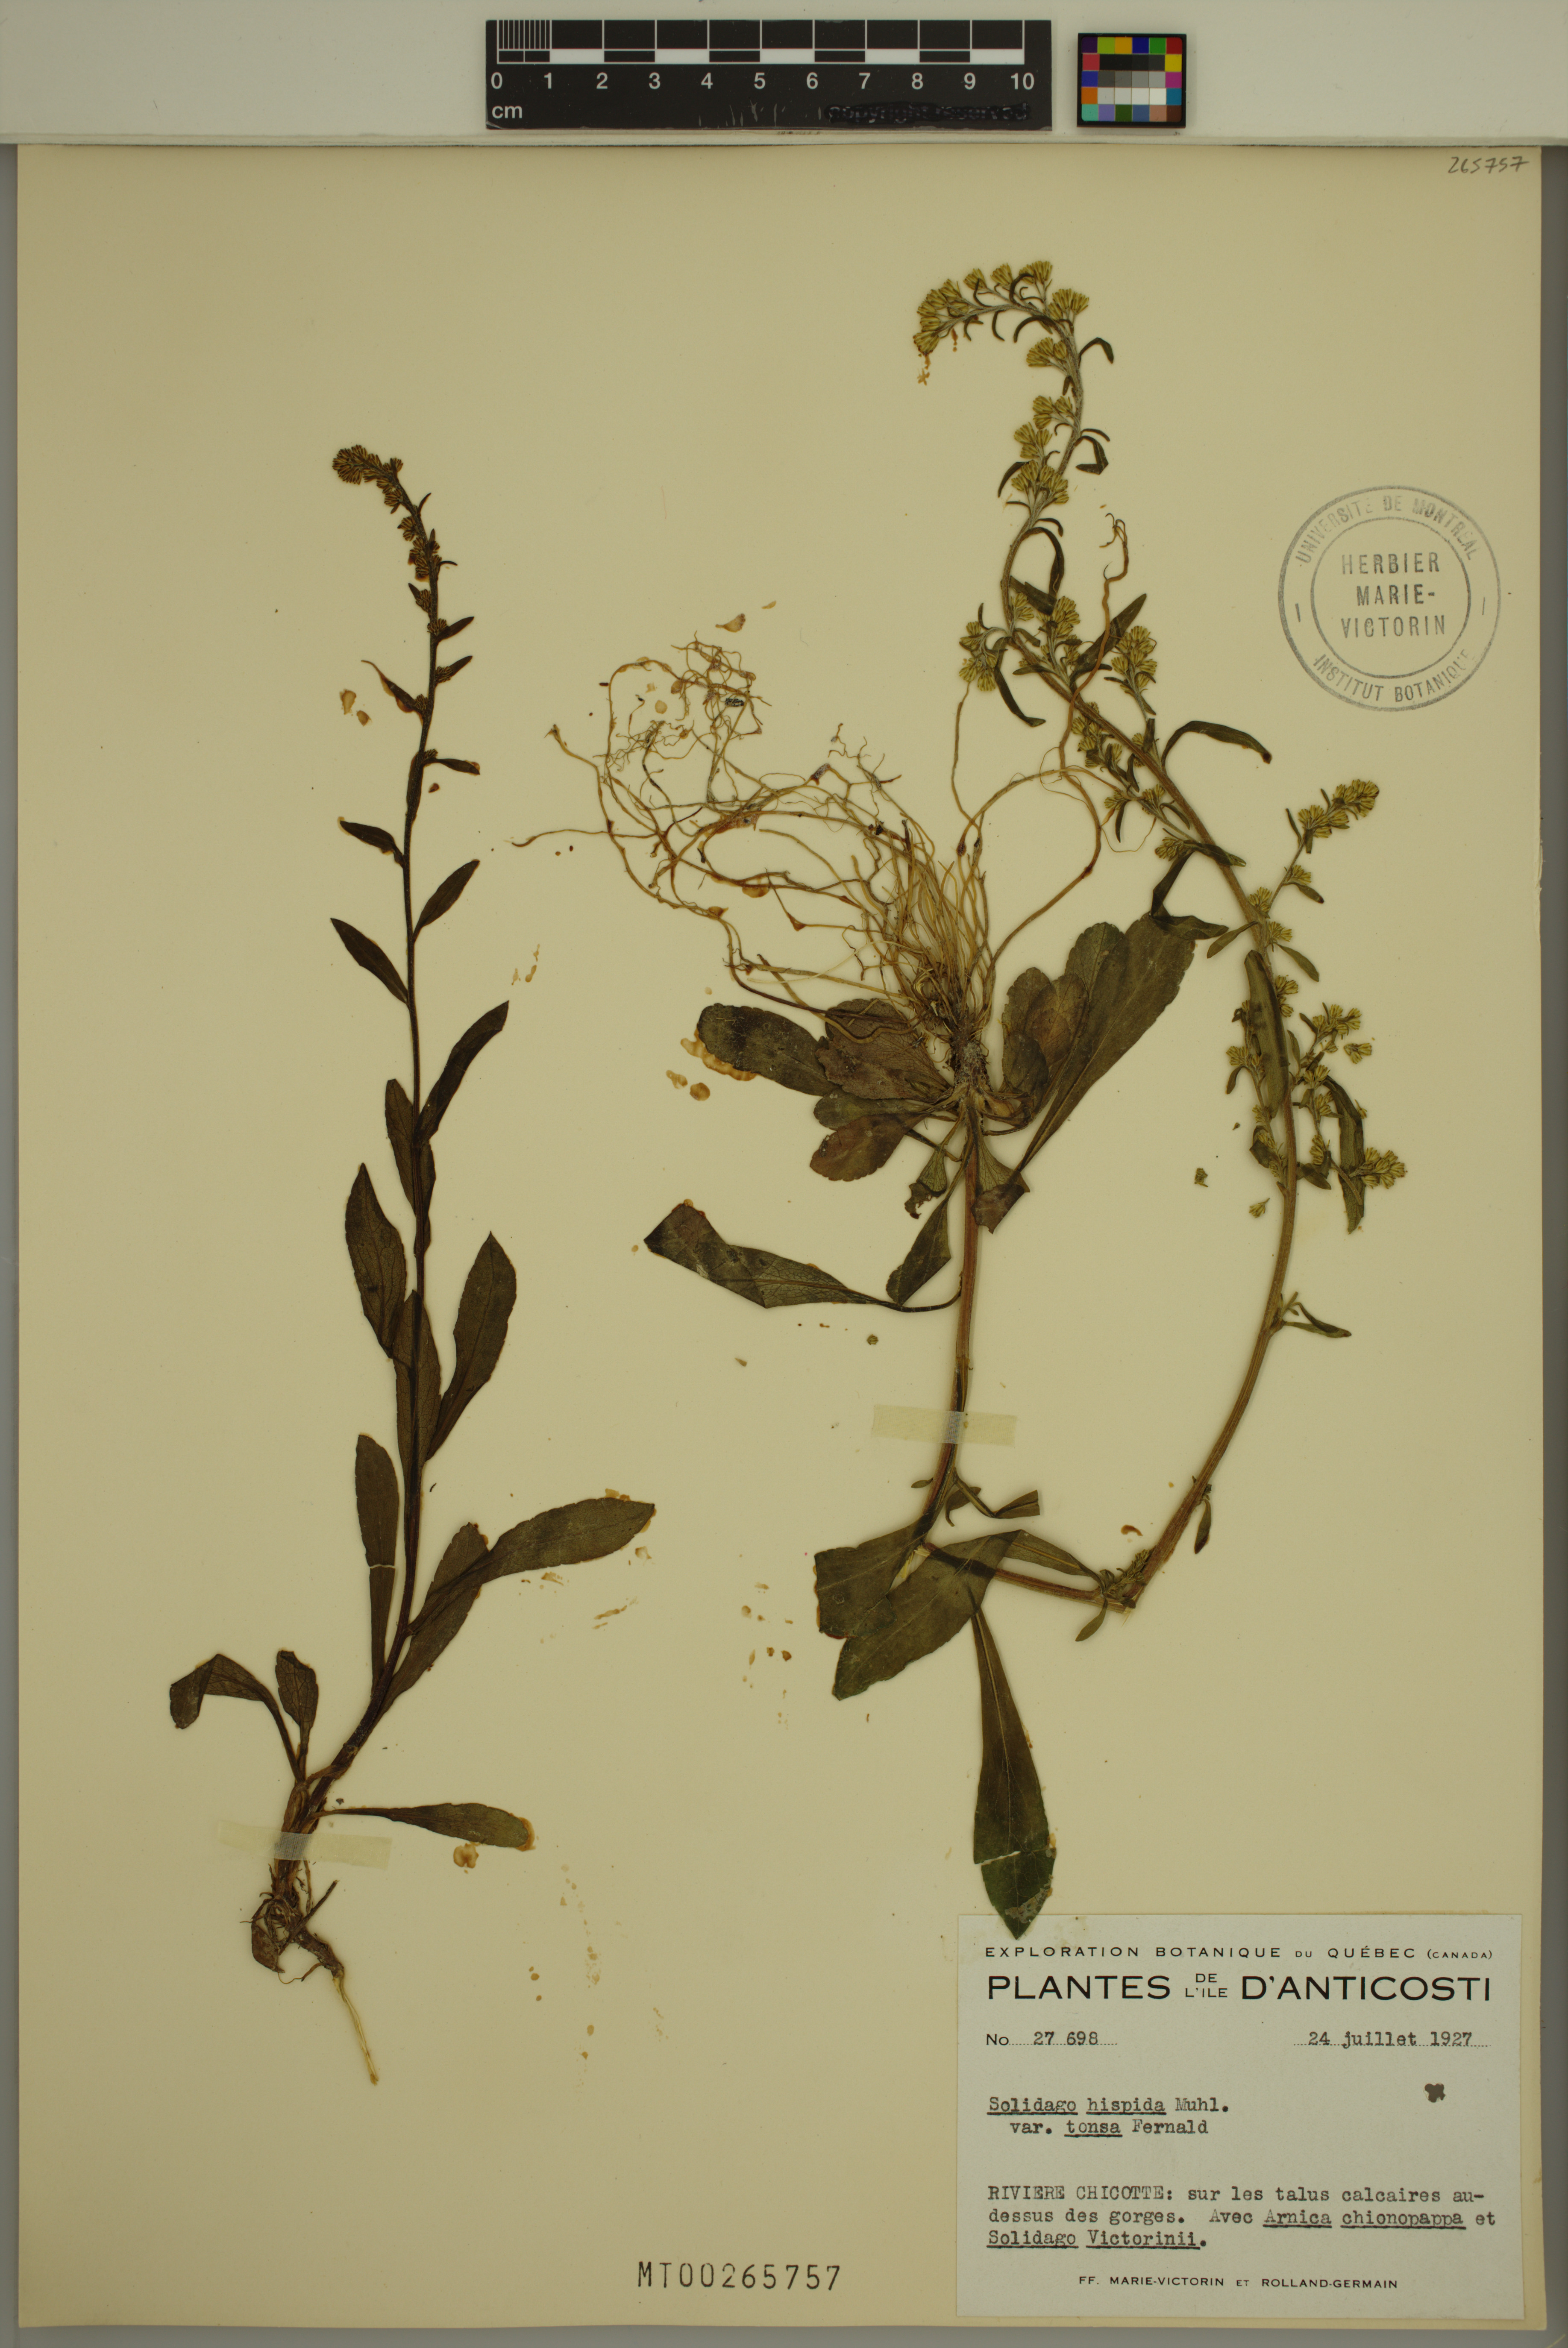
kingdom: Plantae
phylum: Tracheophyta
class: Magnoliopsida
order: Asterales
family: Asteraceae
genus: Solidago
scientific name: Solidago hispida
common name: Hairy goldenrod
